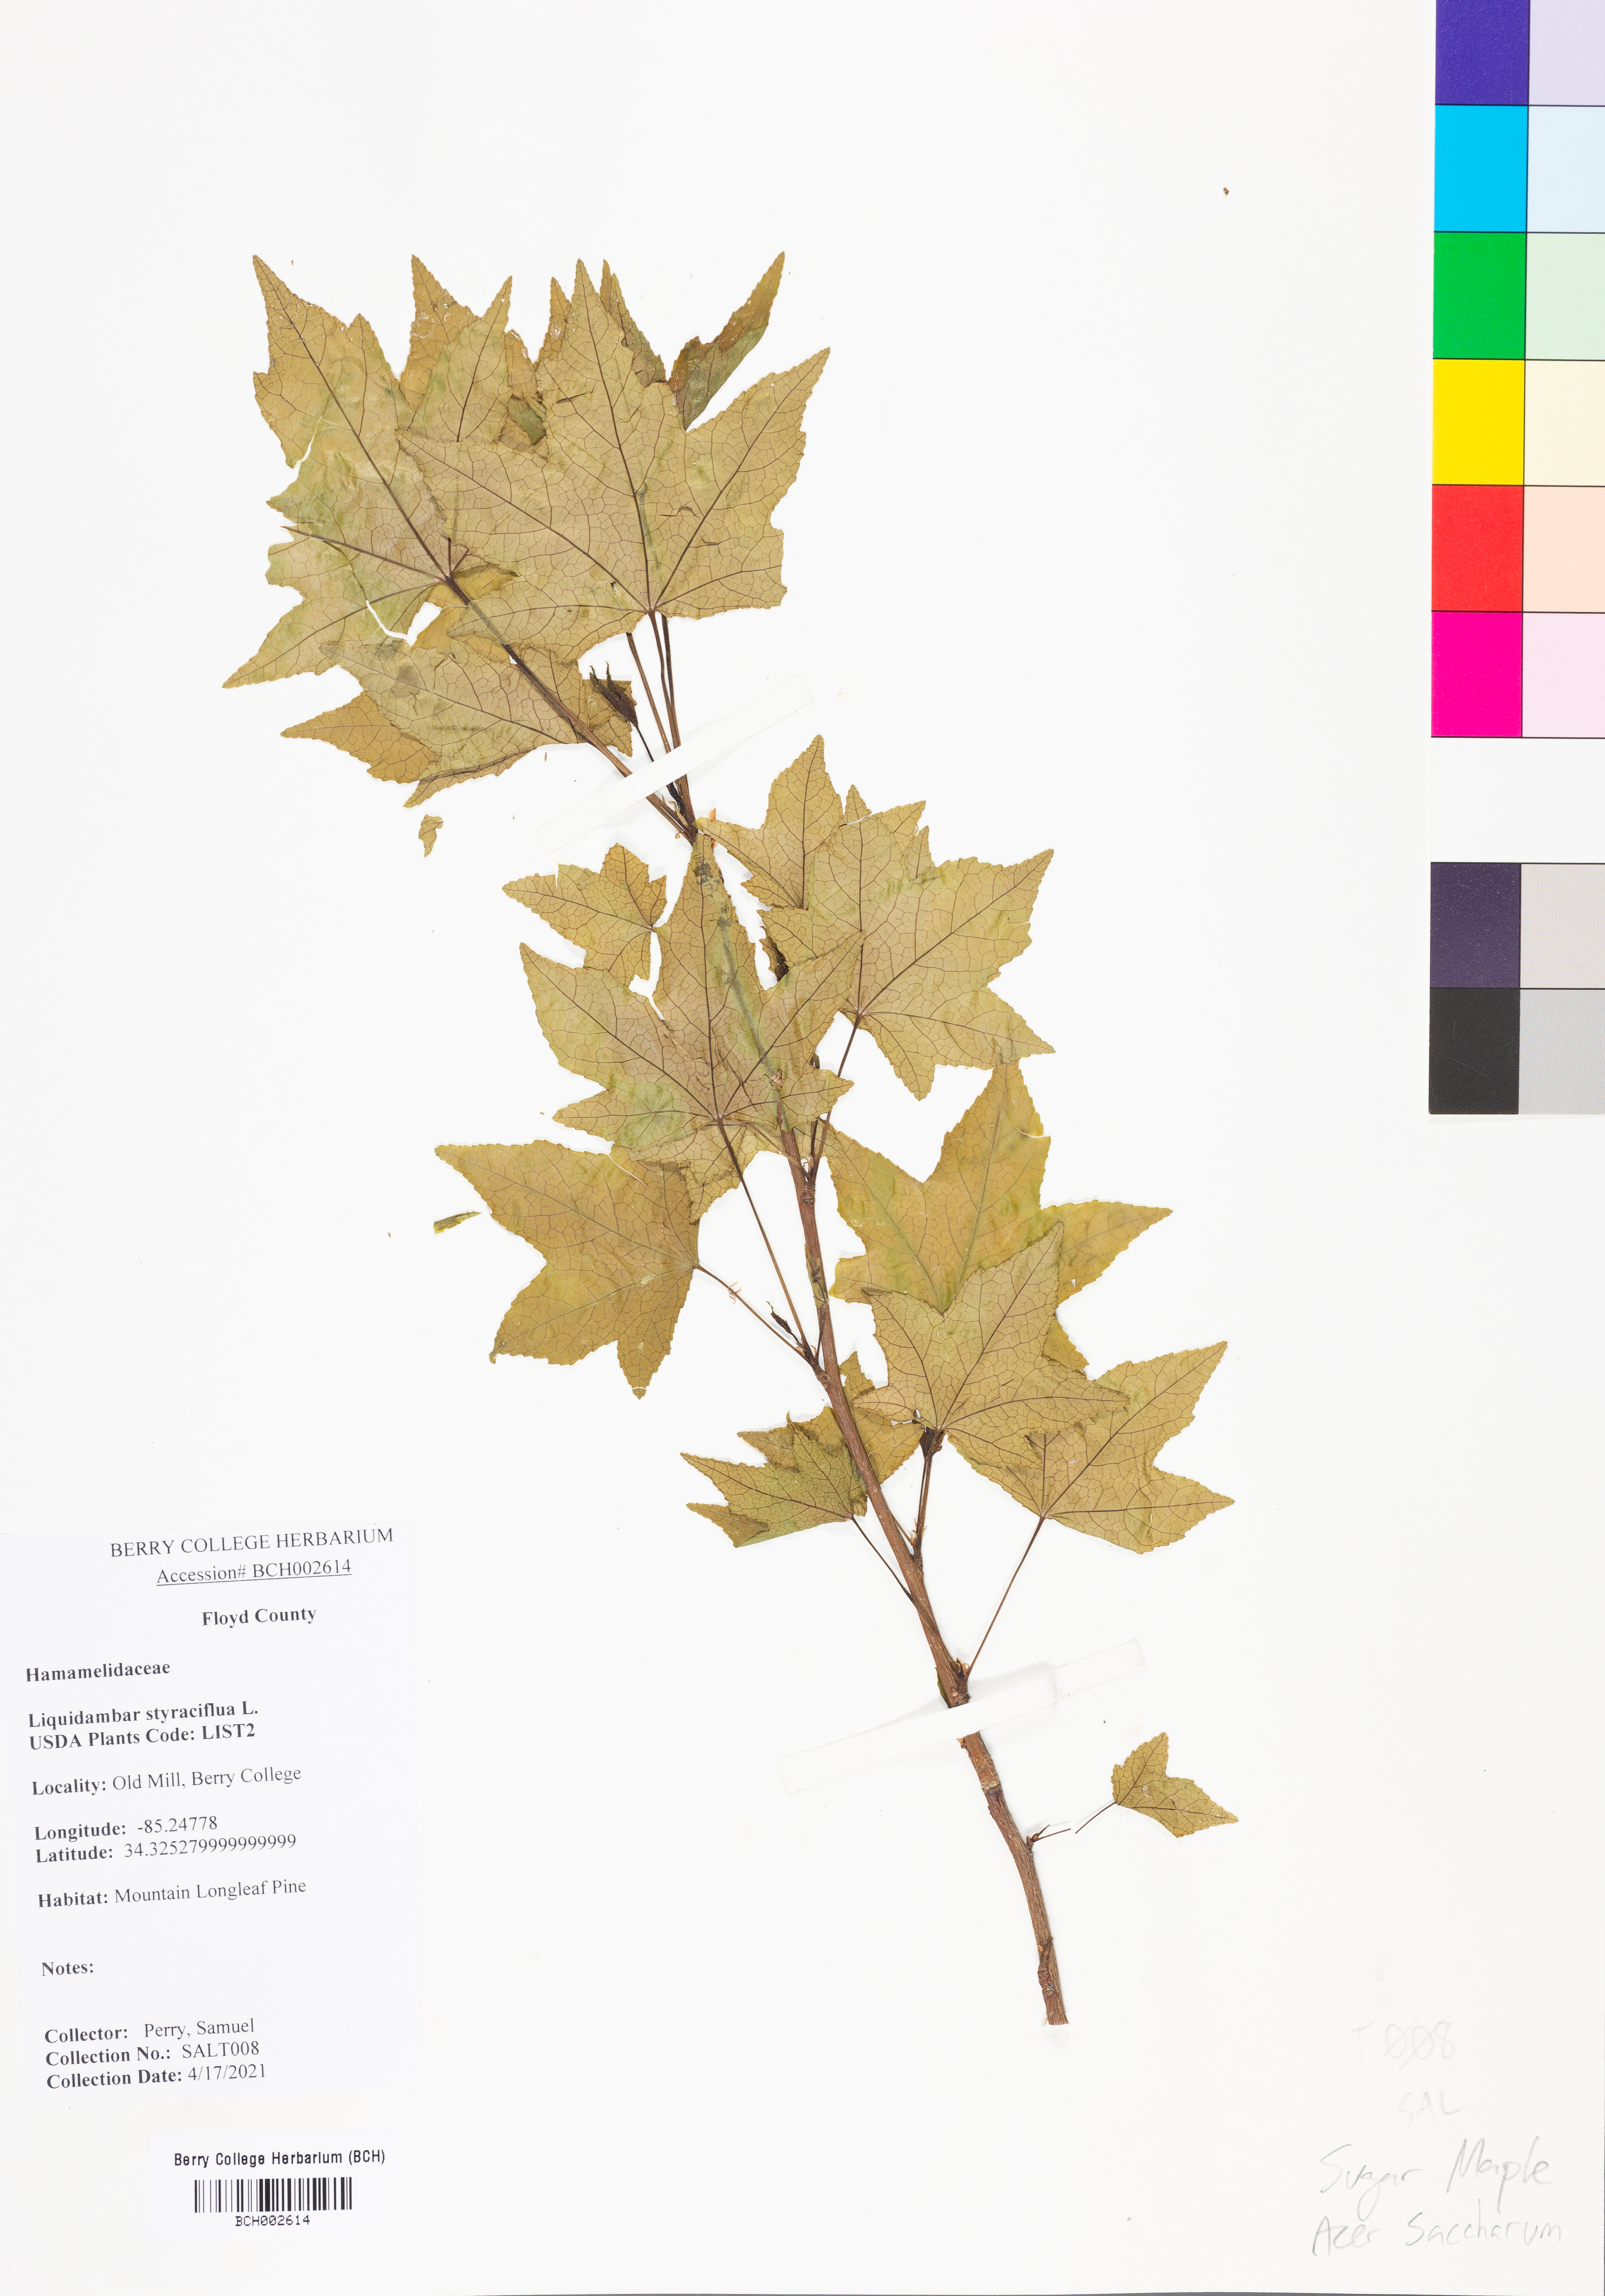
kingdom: Plantae
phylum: Tracheophyta
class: Magnoliopsida
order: Saxifragales
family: Altingiaceae
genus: Liquidambar
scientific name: Liquidambar styraciflua
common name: Sweet gum
